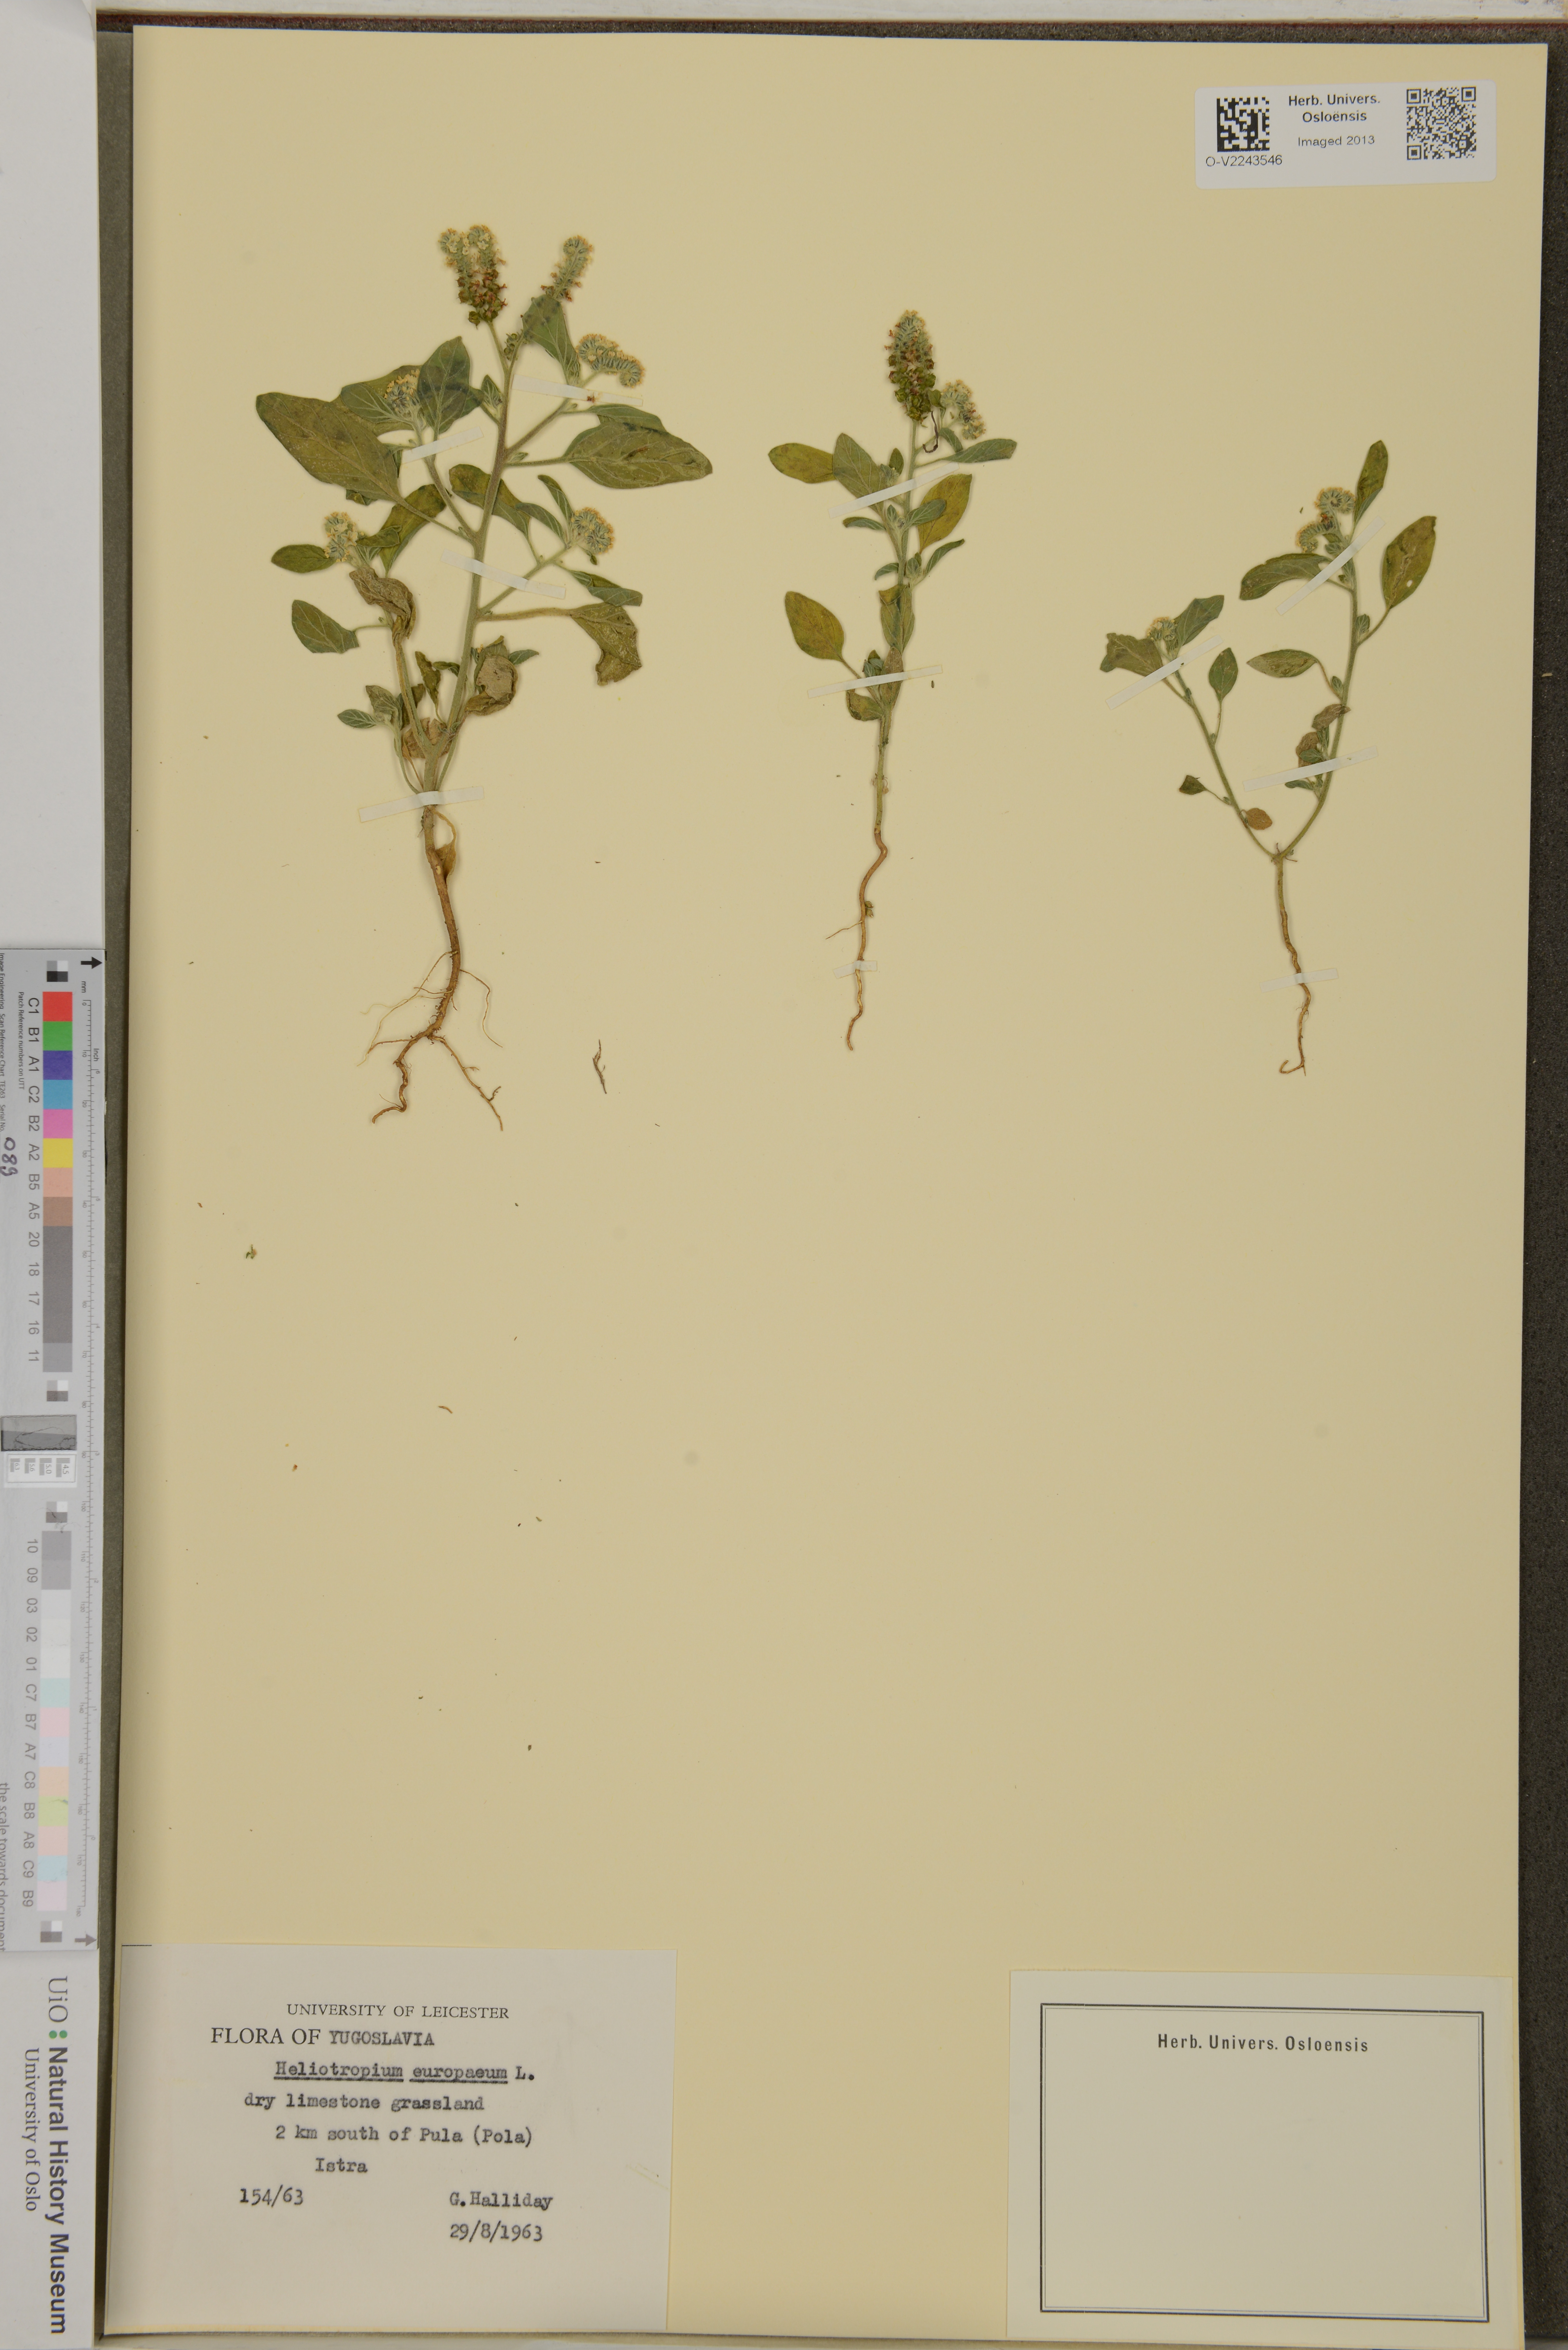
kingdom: Plantae
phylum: Tracheophyta
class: Magnoliopsida
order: Boraginales
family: Heliotropiaceae
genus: Heliotropium
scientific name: Heliotropium europaeum
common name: European heliotrope
